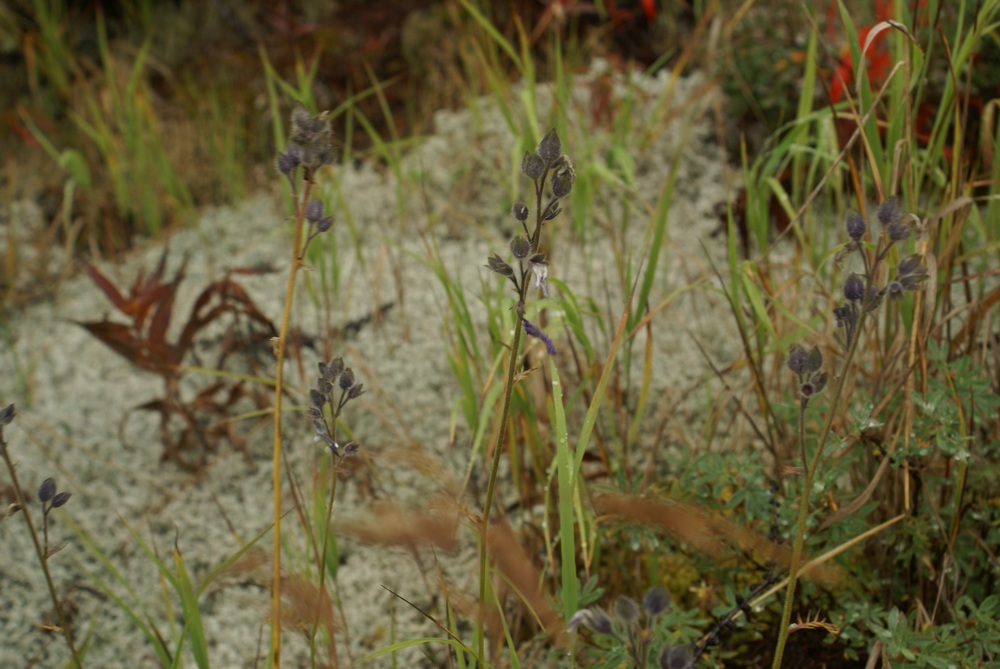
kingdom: Plantae
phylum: Tracheophyta
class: Magnoliopsida
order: Ericales
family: Polemoniaceae
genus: Polemonium
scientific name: Polemonium acutiflorum
